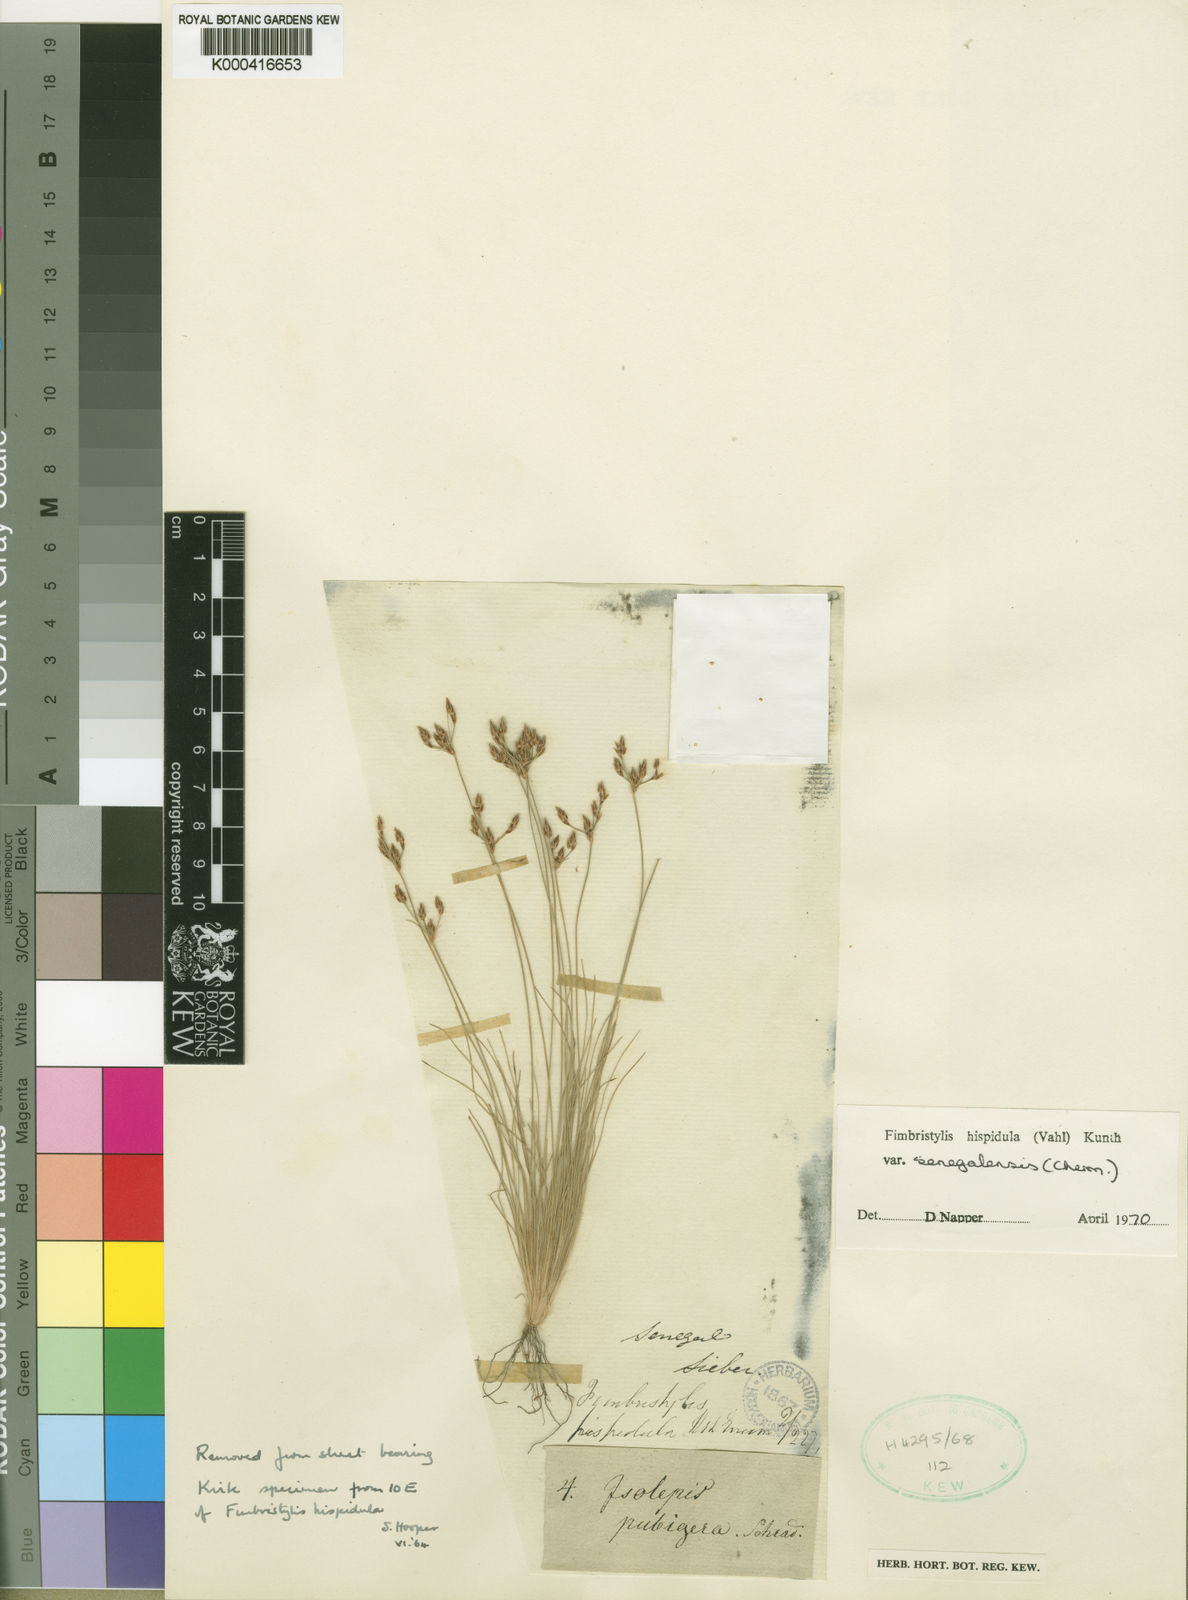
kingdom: Plantae
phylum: Tracheophyta
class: Liliopsida
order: Poales
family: Cyperaceae
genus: Bulbostylis
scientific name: Bulbostylis hispidula
